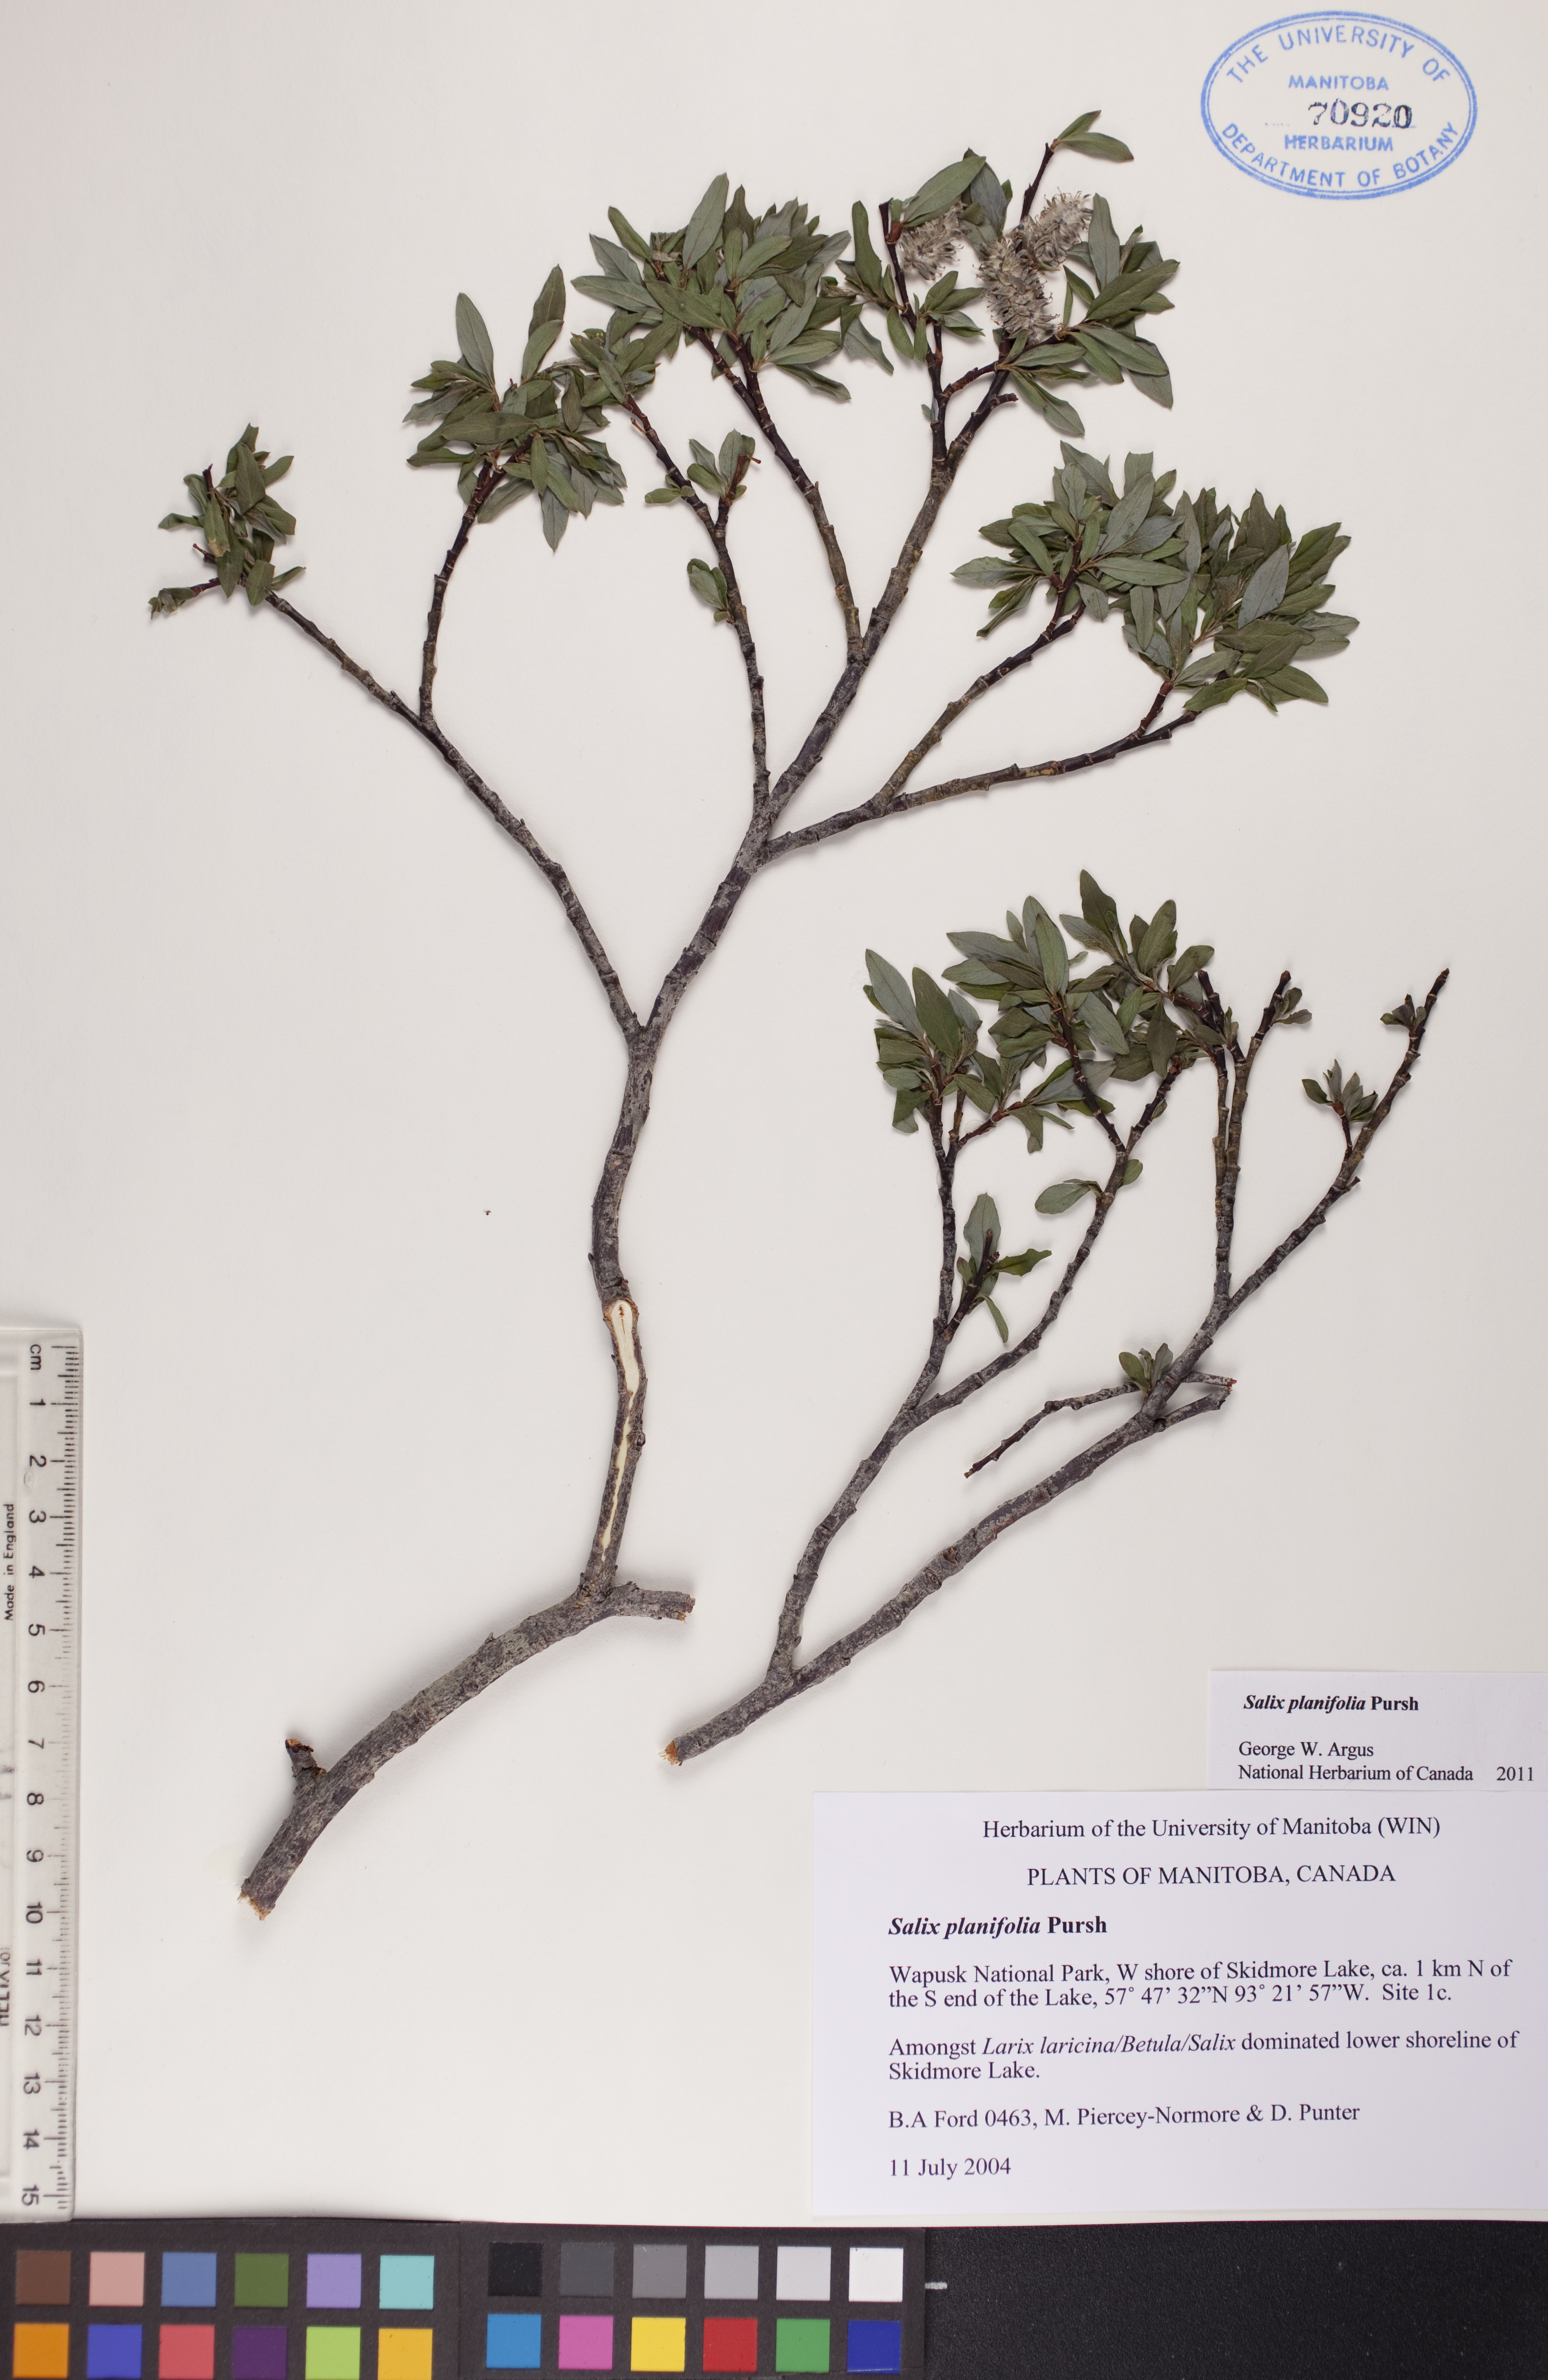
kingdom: Plantae
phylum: Tracheophyta
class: Magnoliopsida
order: Malpighiales
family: Salicaceae
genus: Salix
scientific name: Salix planifolia
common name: Mountain willow
